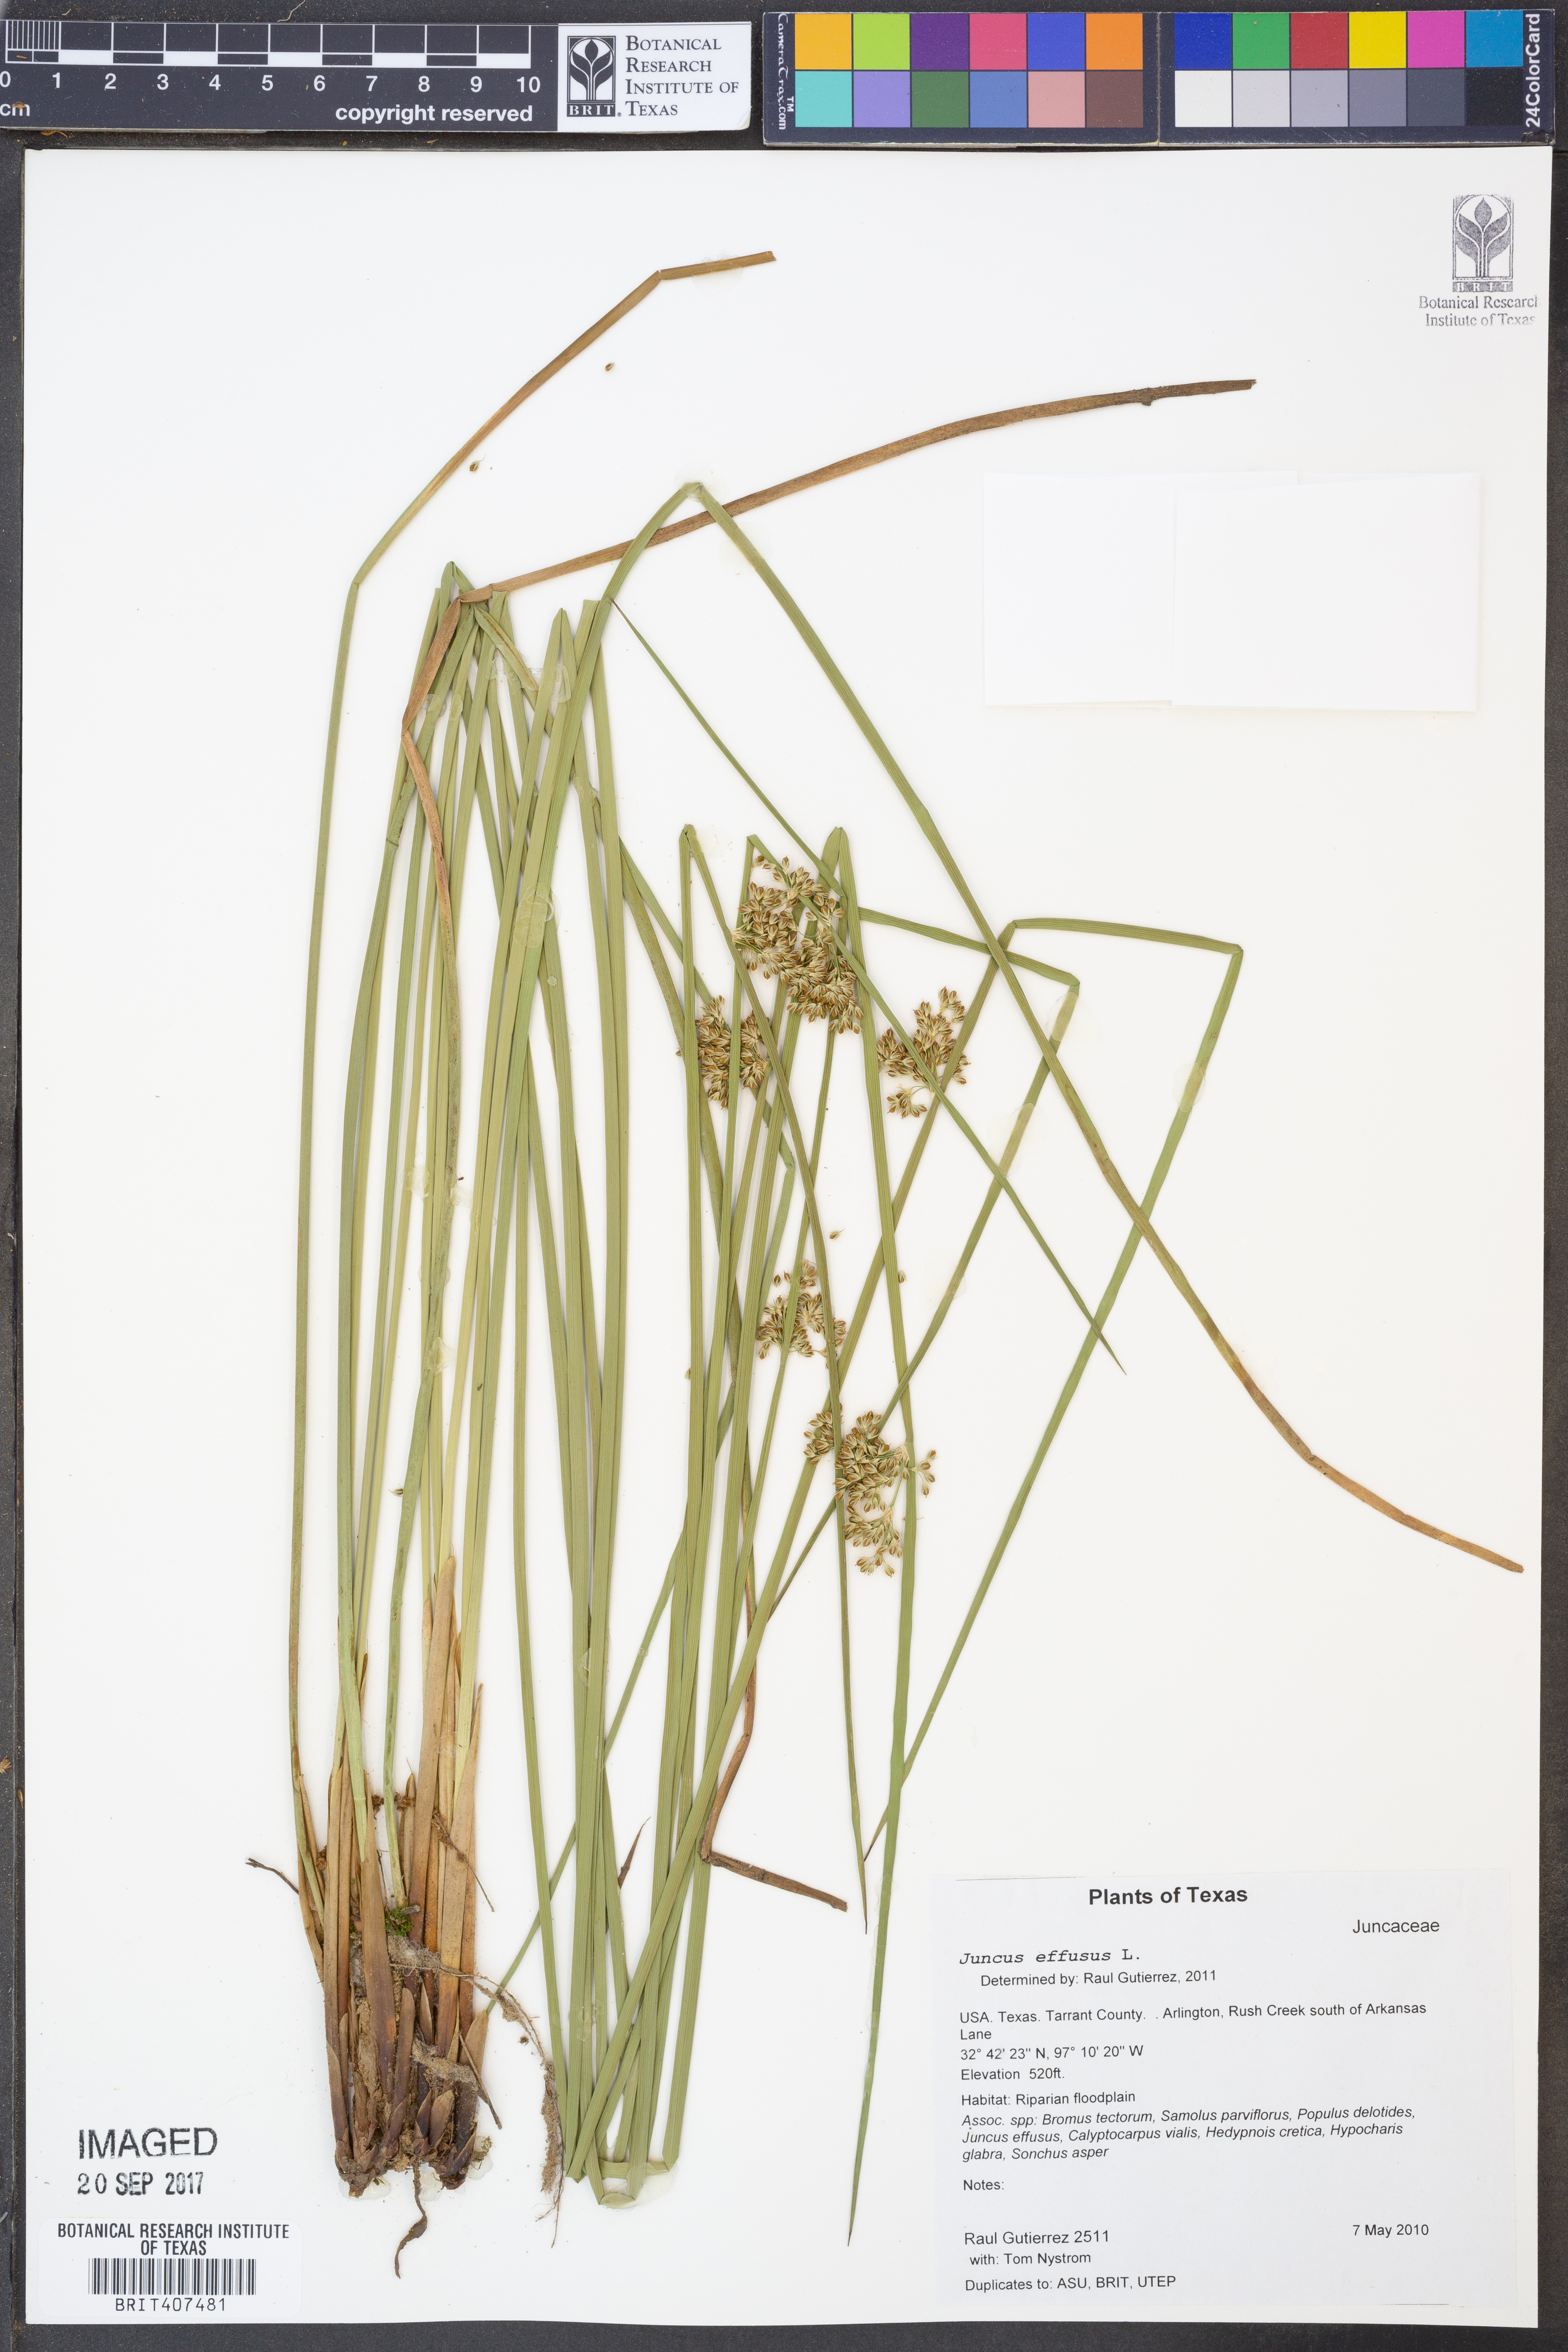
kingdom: Plantae
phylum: Tracheophyta
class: Liliopsida
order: Poales
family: Juncaceae
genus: Juncus
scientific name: Juncus effusus
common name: Soft rush
